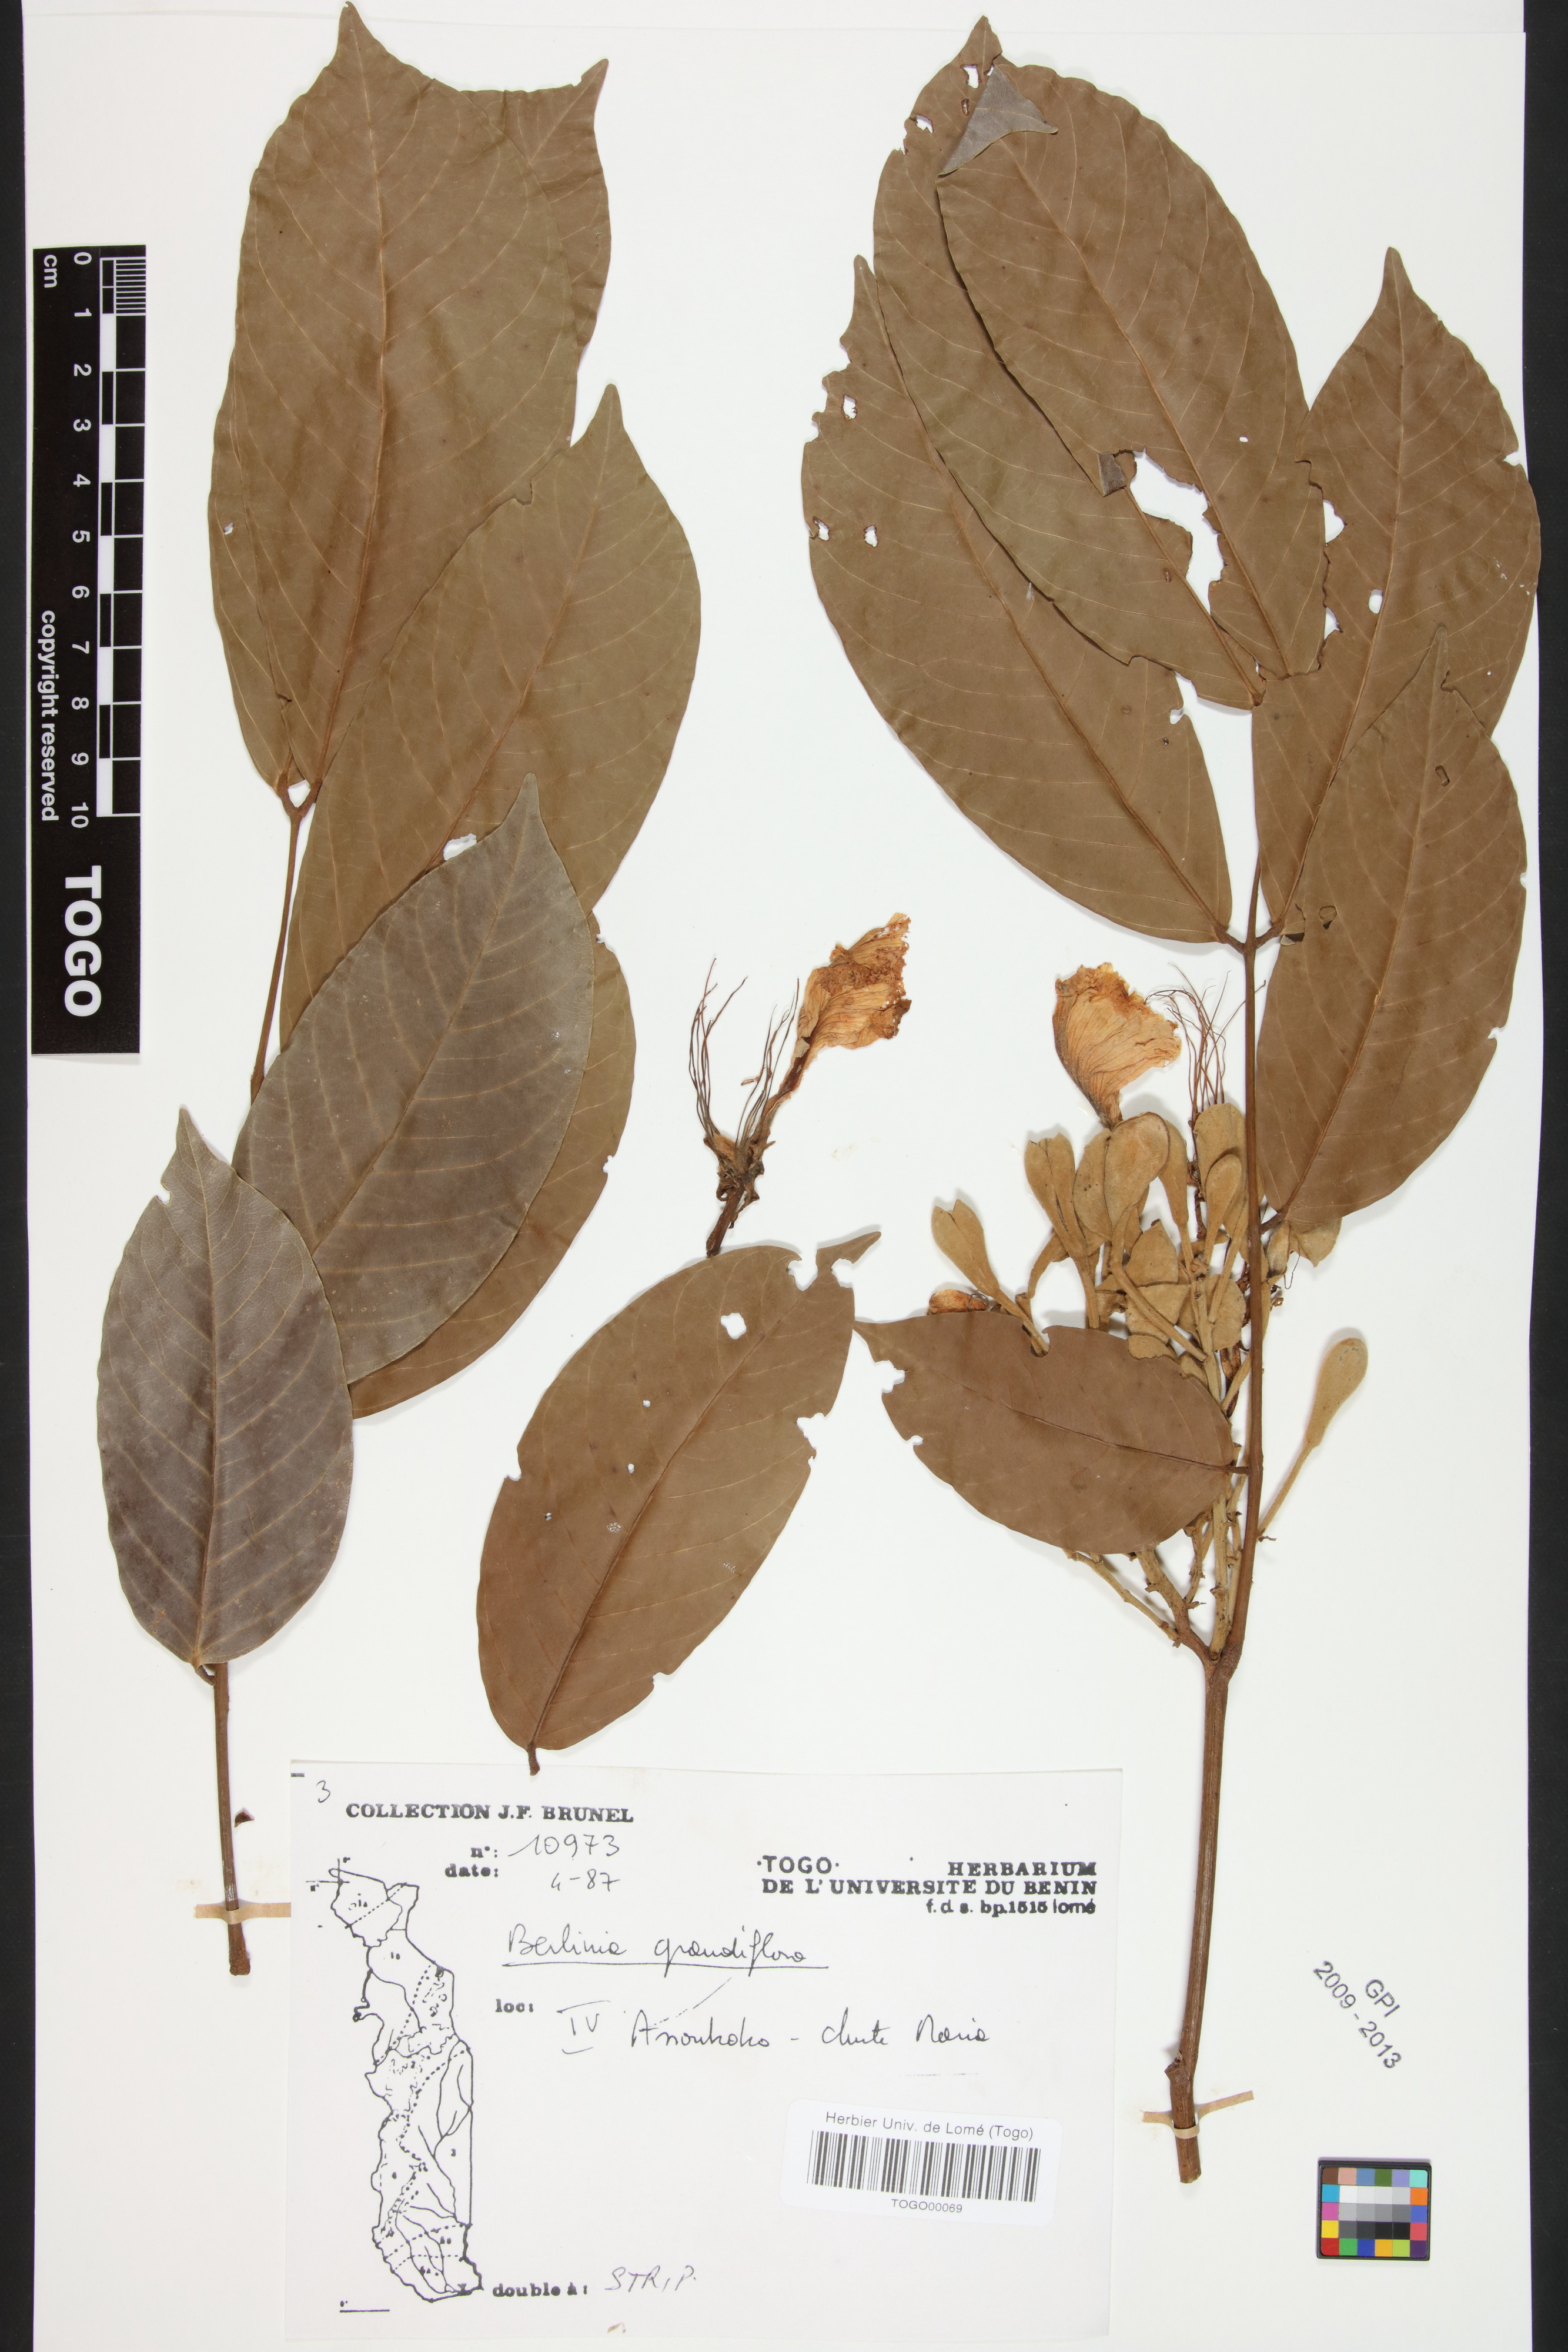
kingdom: Plantae
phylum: Tracheophyta
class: Magnoliopsida
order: Fabales
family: Fabaceae
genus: Berlinia
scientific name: Berlinia grandiflora
